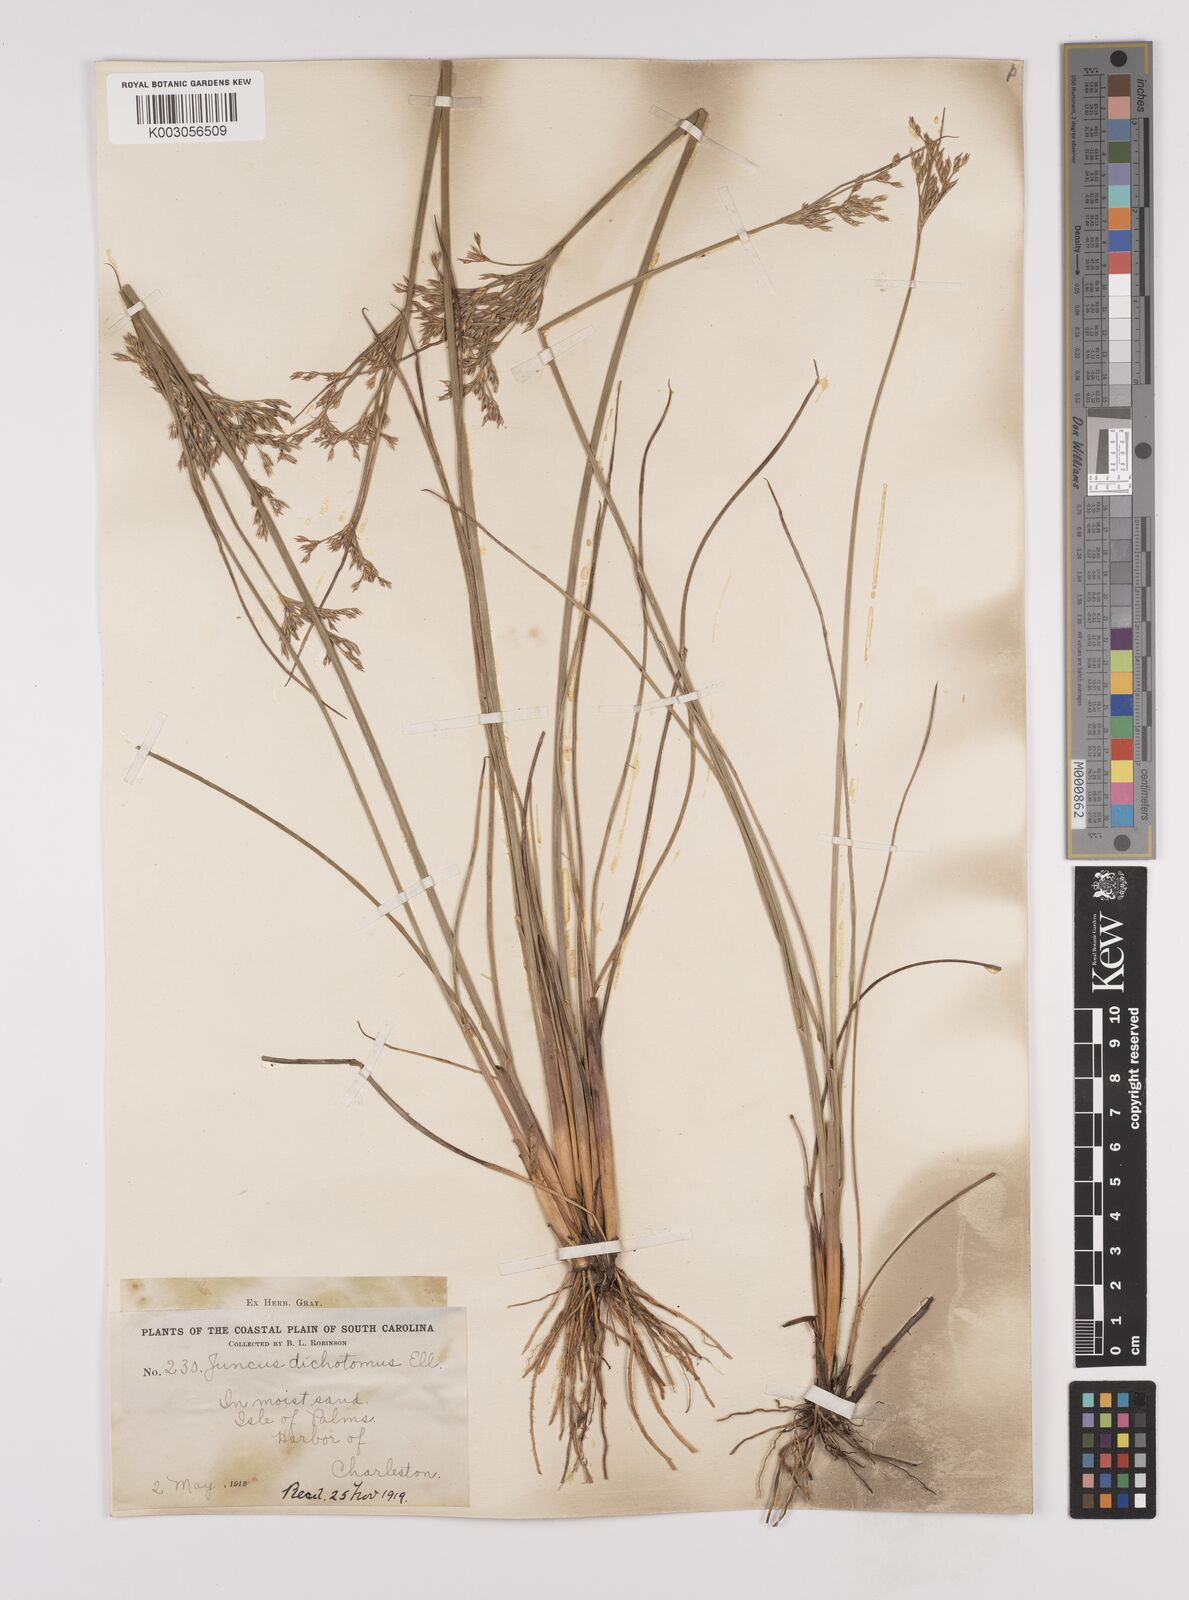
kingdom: Plantae
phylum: Tracheophyta
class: Liliopsida
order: Poales
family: Juncaceae
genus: Juncus
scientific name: Juncus dichotomus
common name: Forked rush
